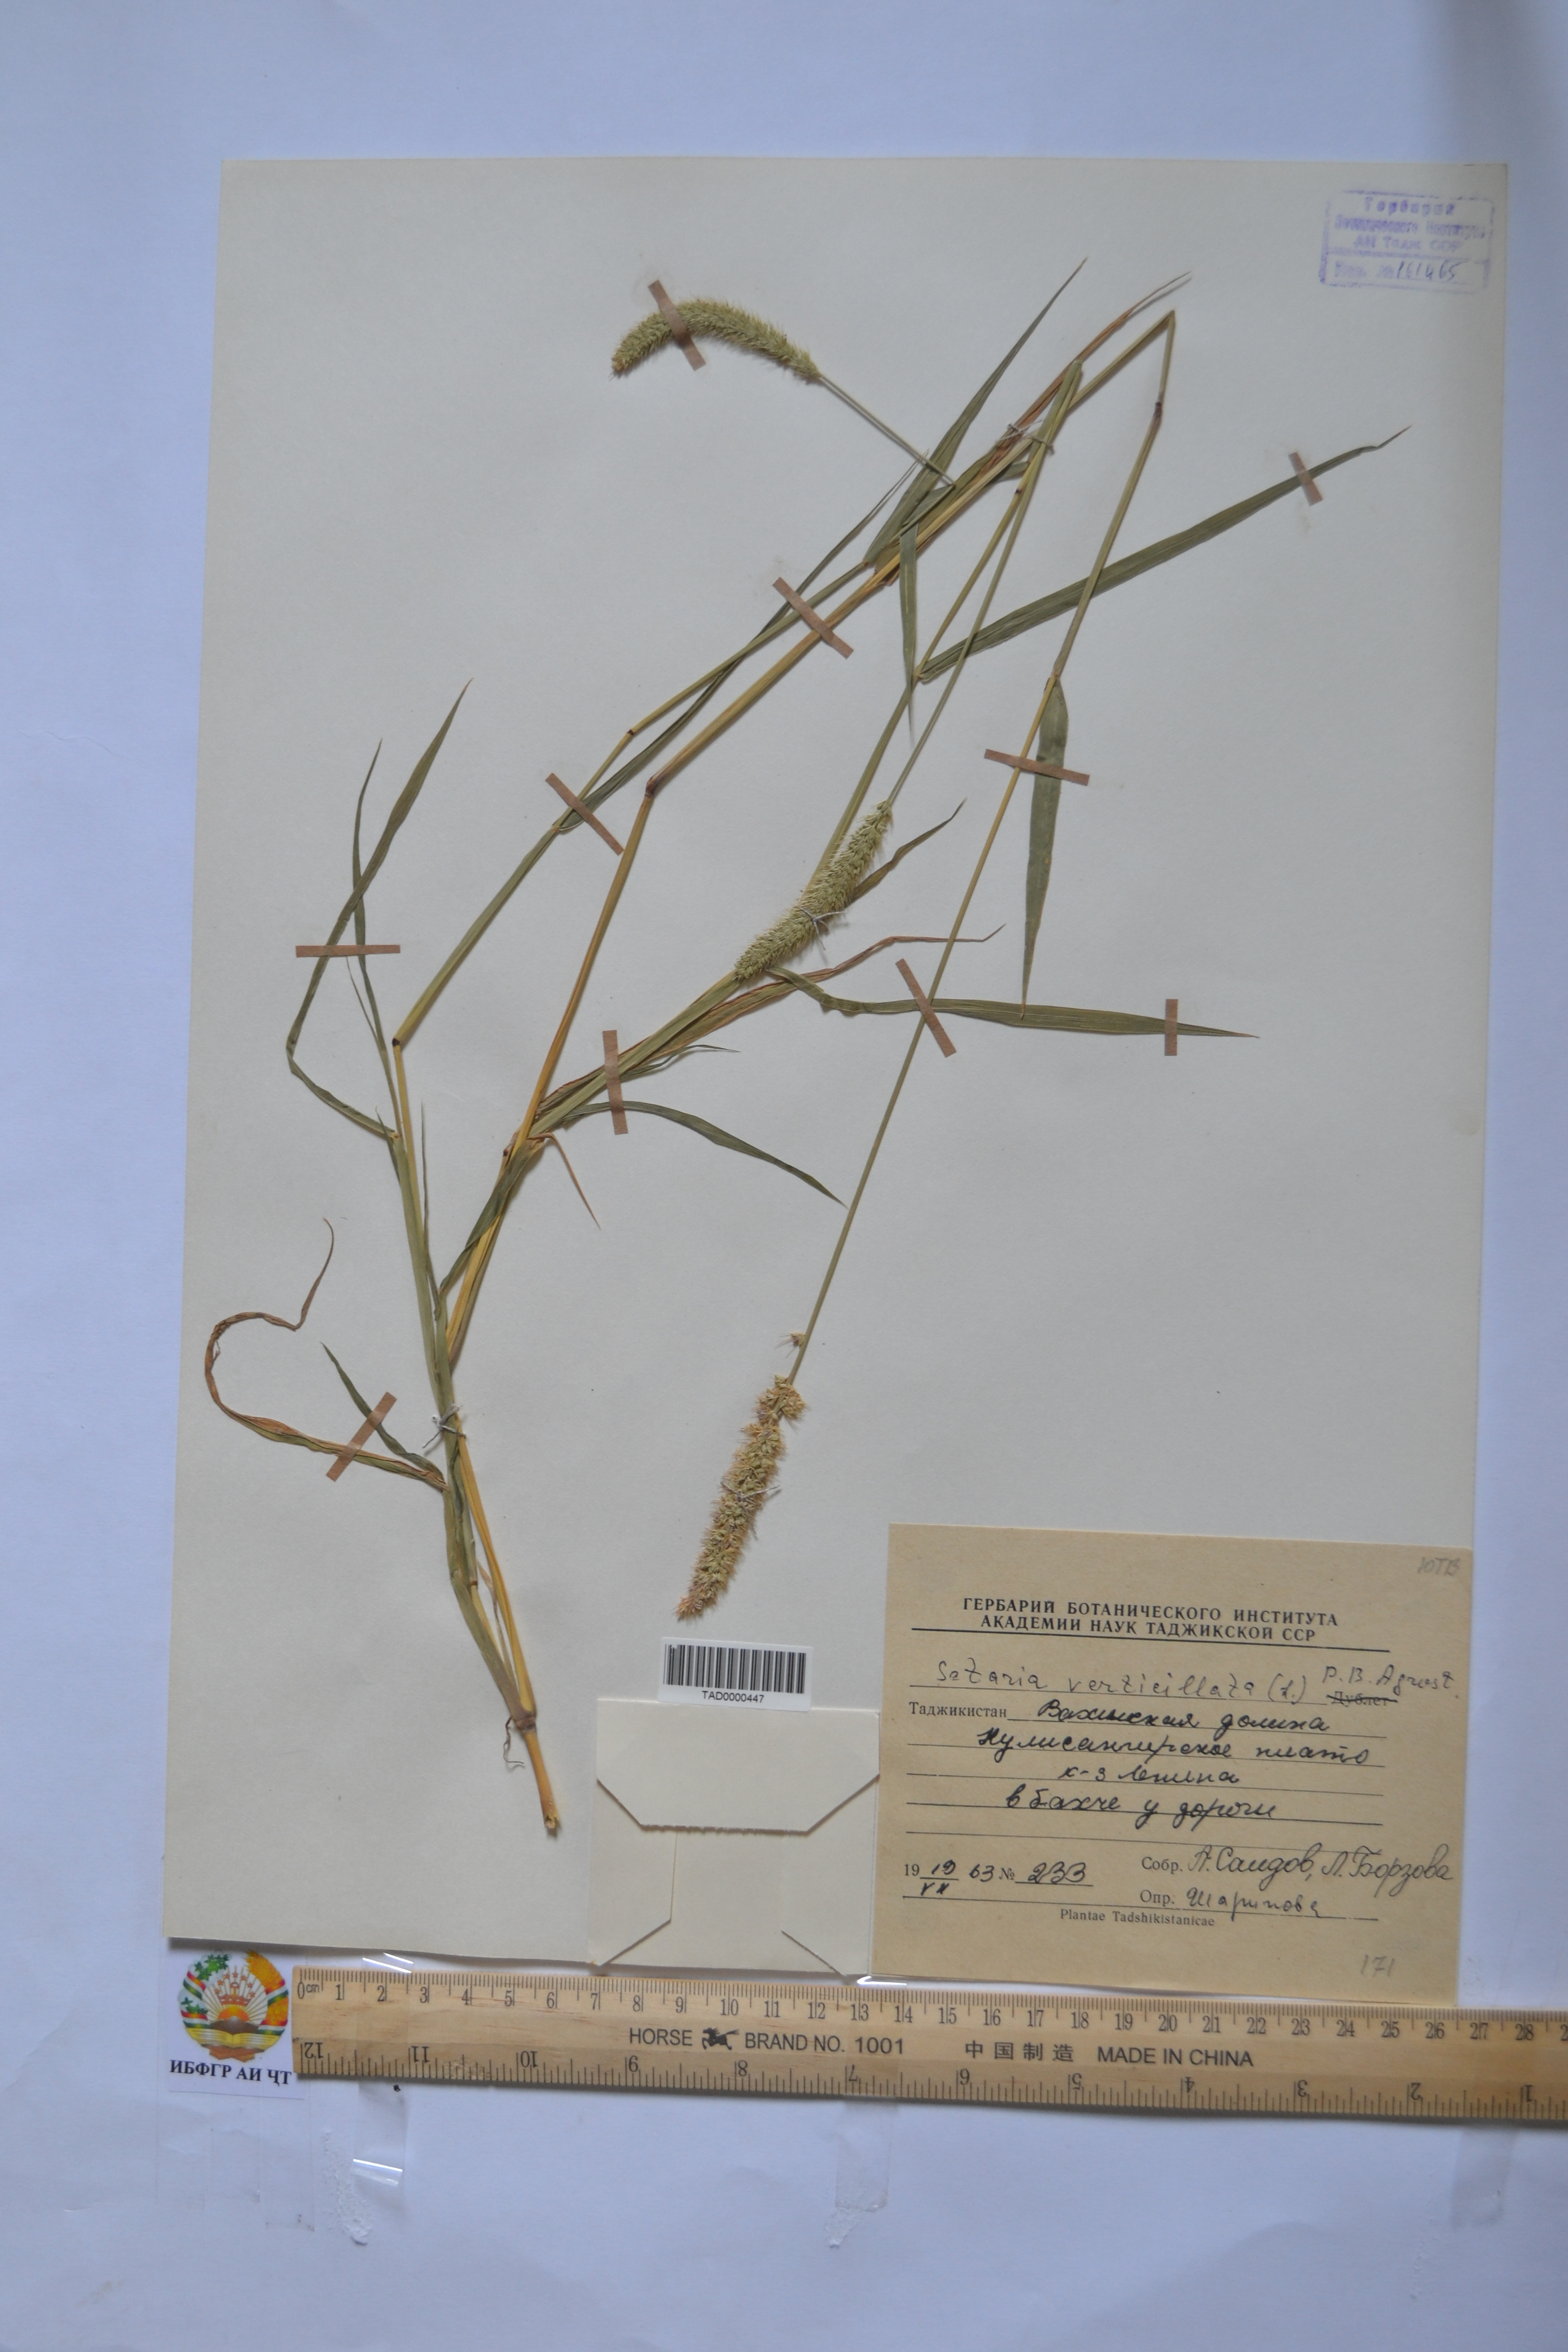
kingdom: Plantae
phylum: Tracheophyta
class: Liliopsida
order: Poales
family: Poaceae
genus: Setaria
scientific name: Setaria verticillata
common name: Hooked bristlegrass
